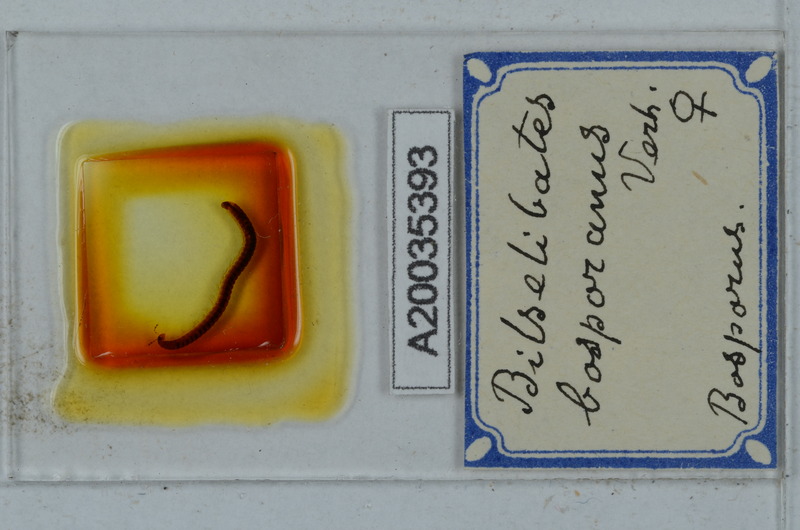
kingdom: Animalia
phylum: Arthropoda
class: Diplopoda
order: Julida
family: Blaniulidae
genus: Cibiniulus
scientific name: Cibiniulus phlepsii
